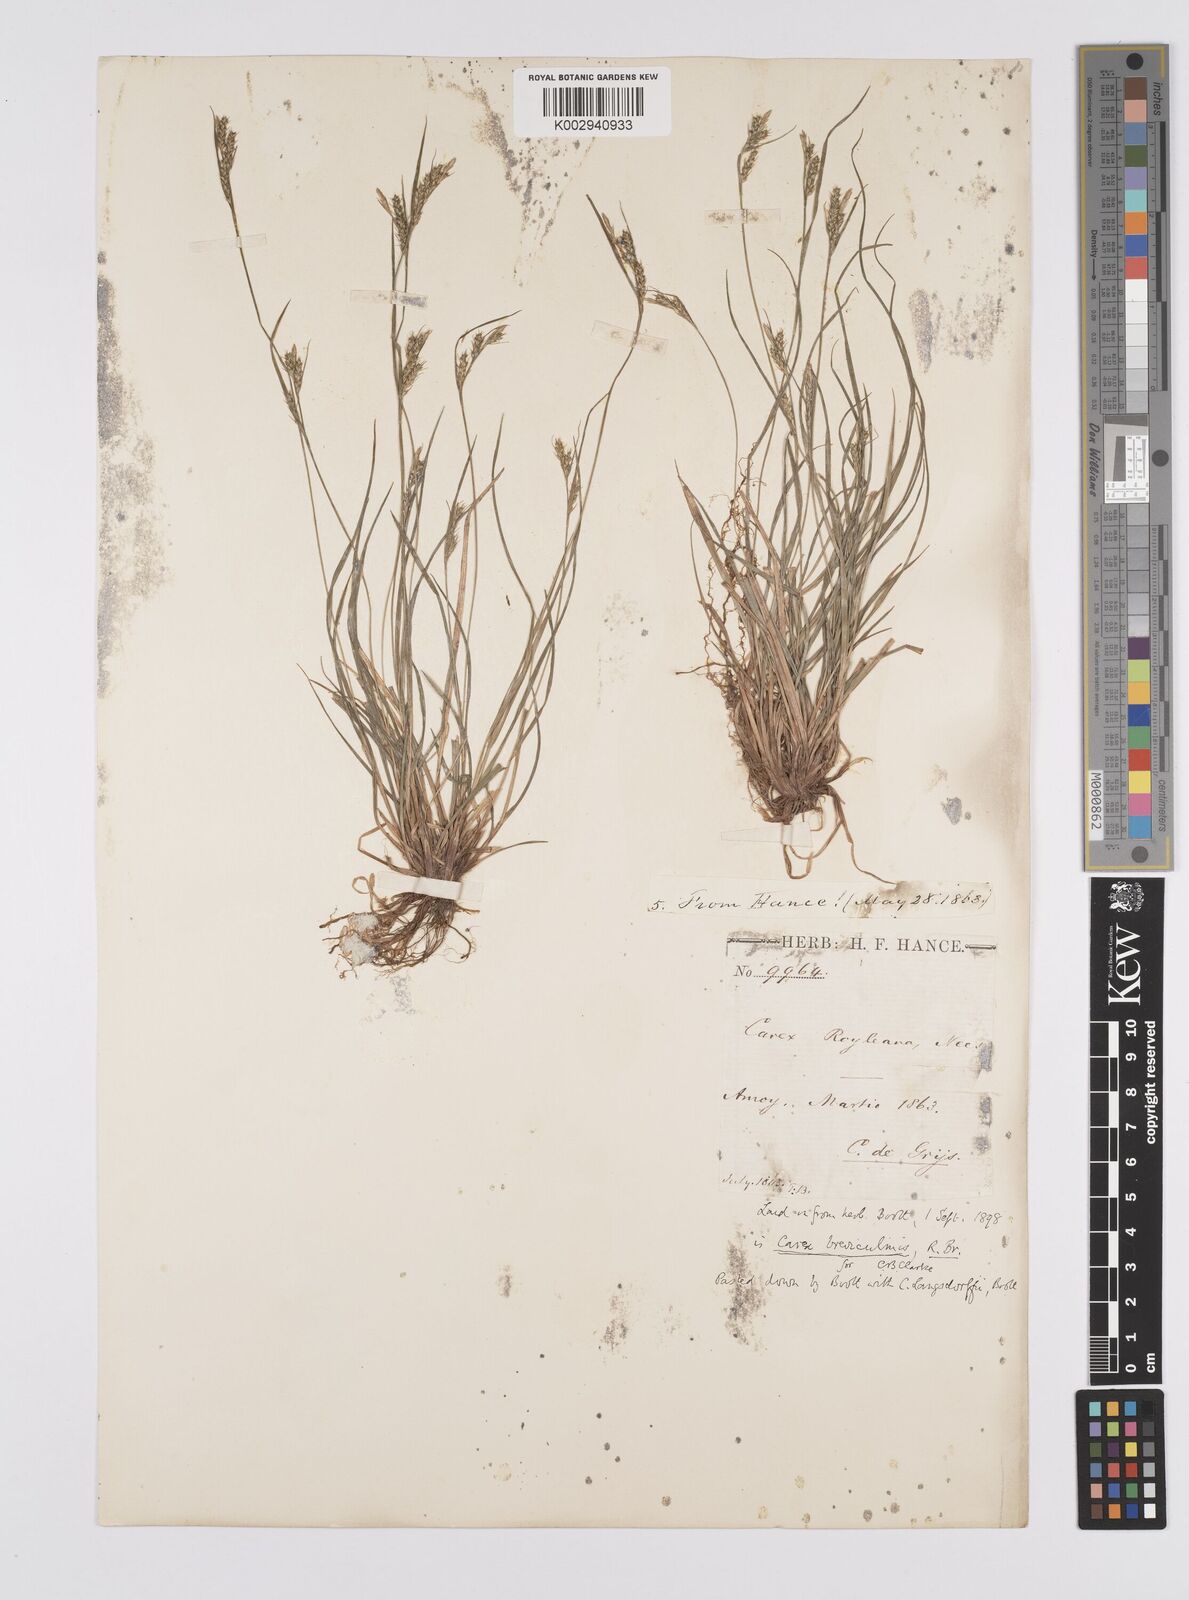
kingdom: Plantae
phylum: Tracheophyta
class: Liliopsida
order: Poales
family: Cyperaceae
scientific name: Cyperaceae
